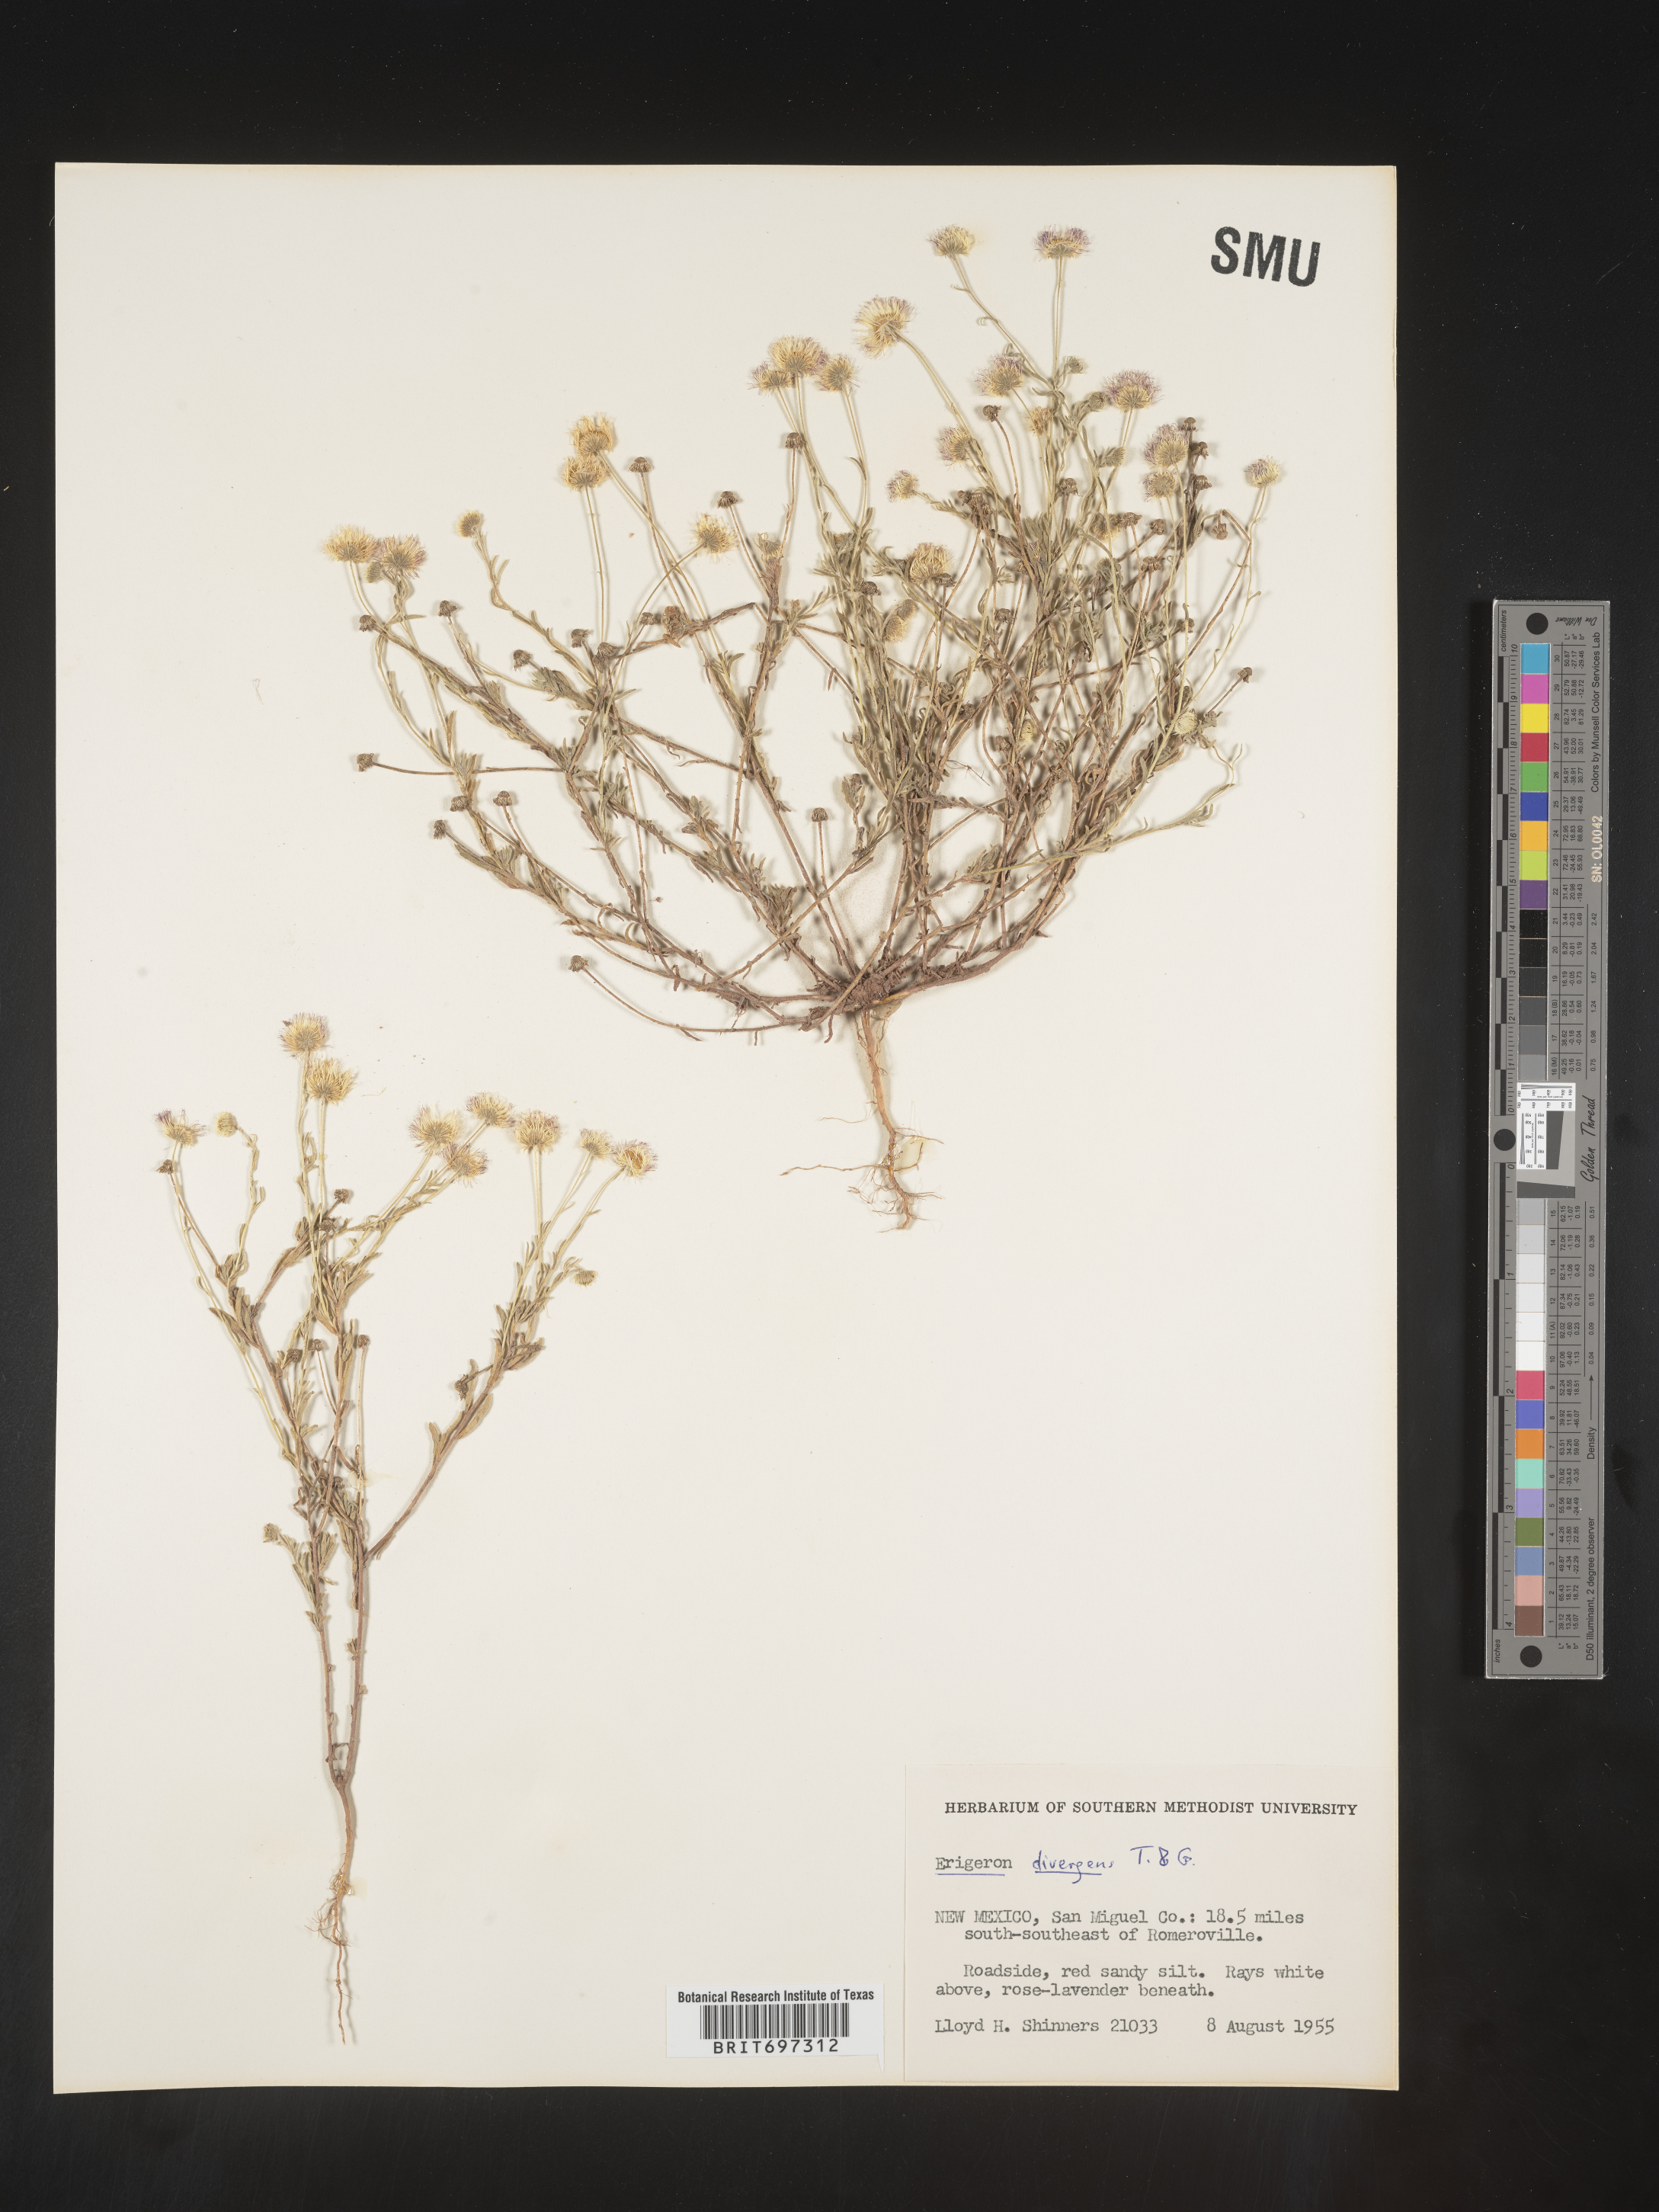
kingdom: Plantae
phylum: Tracheophyta
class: Magnoliopsida
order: Asterales
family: Asteraceae
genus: Erigeron
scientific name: Erigeron divergens
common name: Diffuse fleabane
